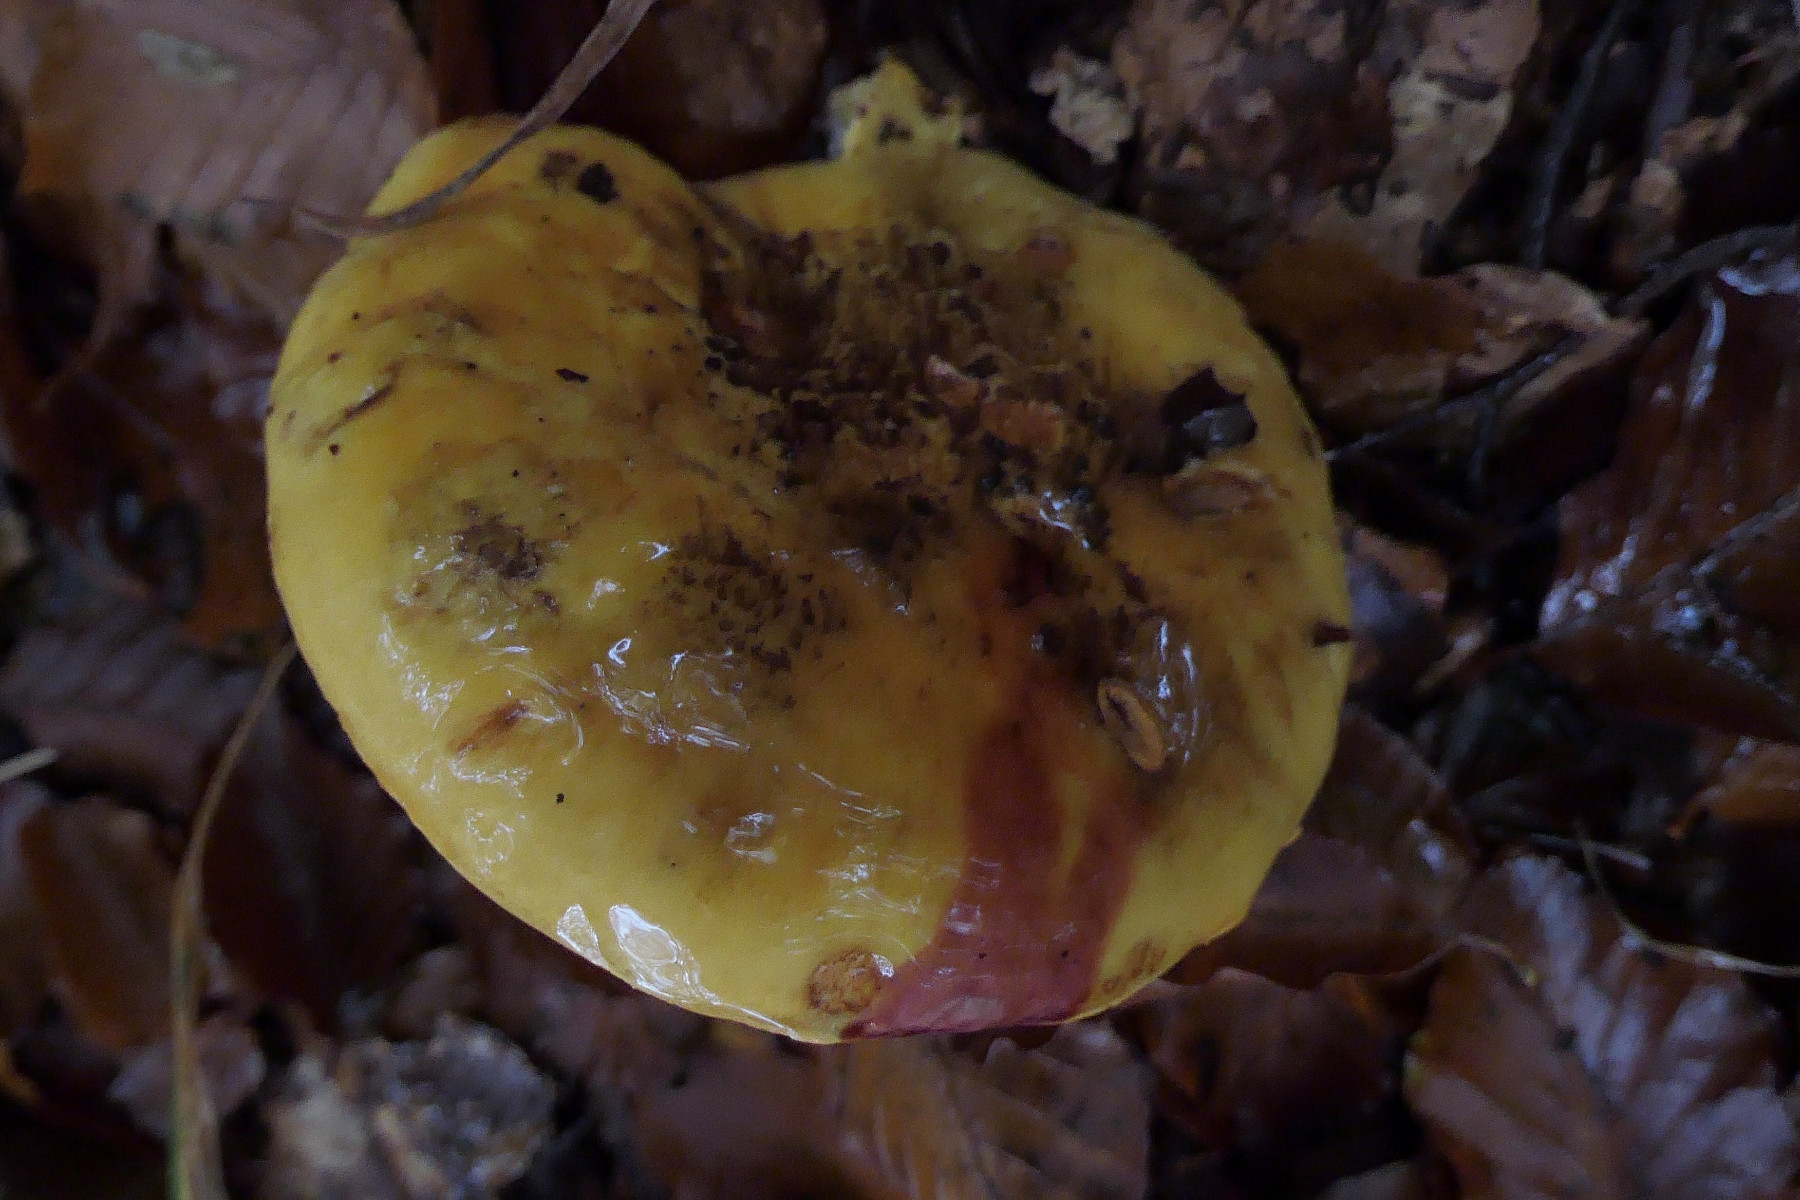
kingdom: Fungi
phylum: Basidiomycota
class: Agaricomycetes
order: Agaricales
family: Cortinariaceae
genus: Calonarius
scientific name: Calonarius alcalinophilus
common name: gyldenbrun slørhat
